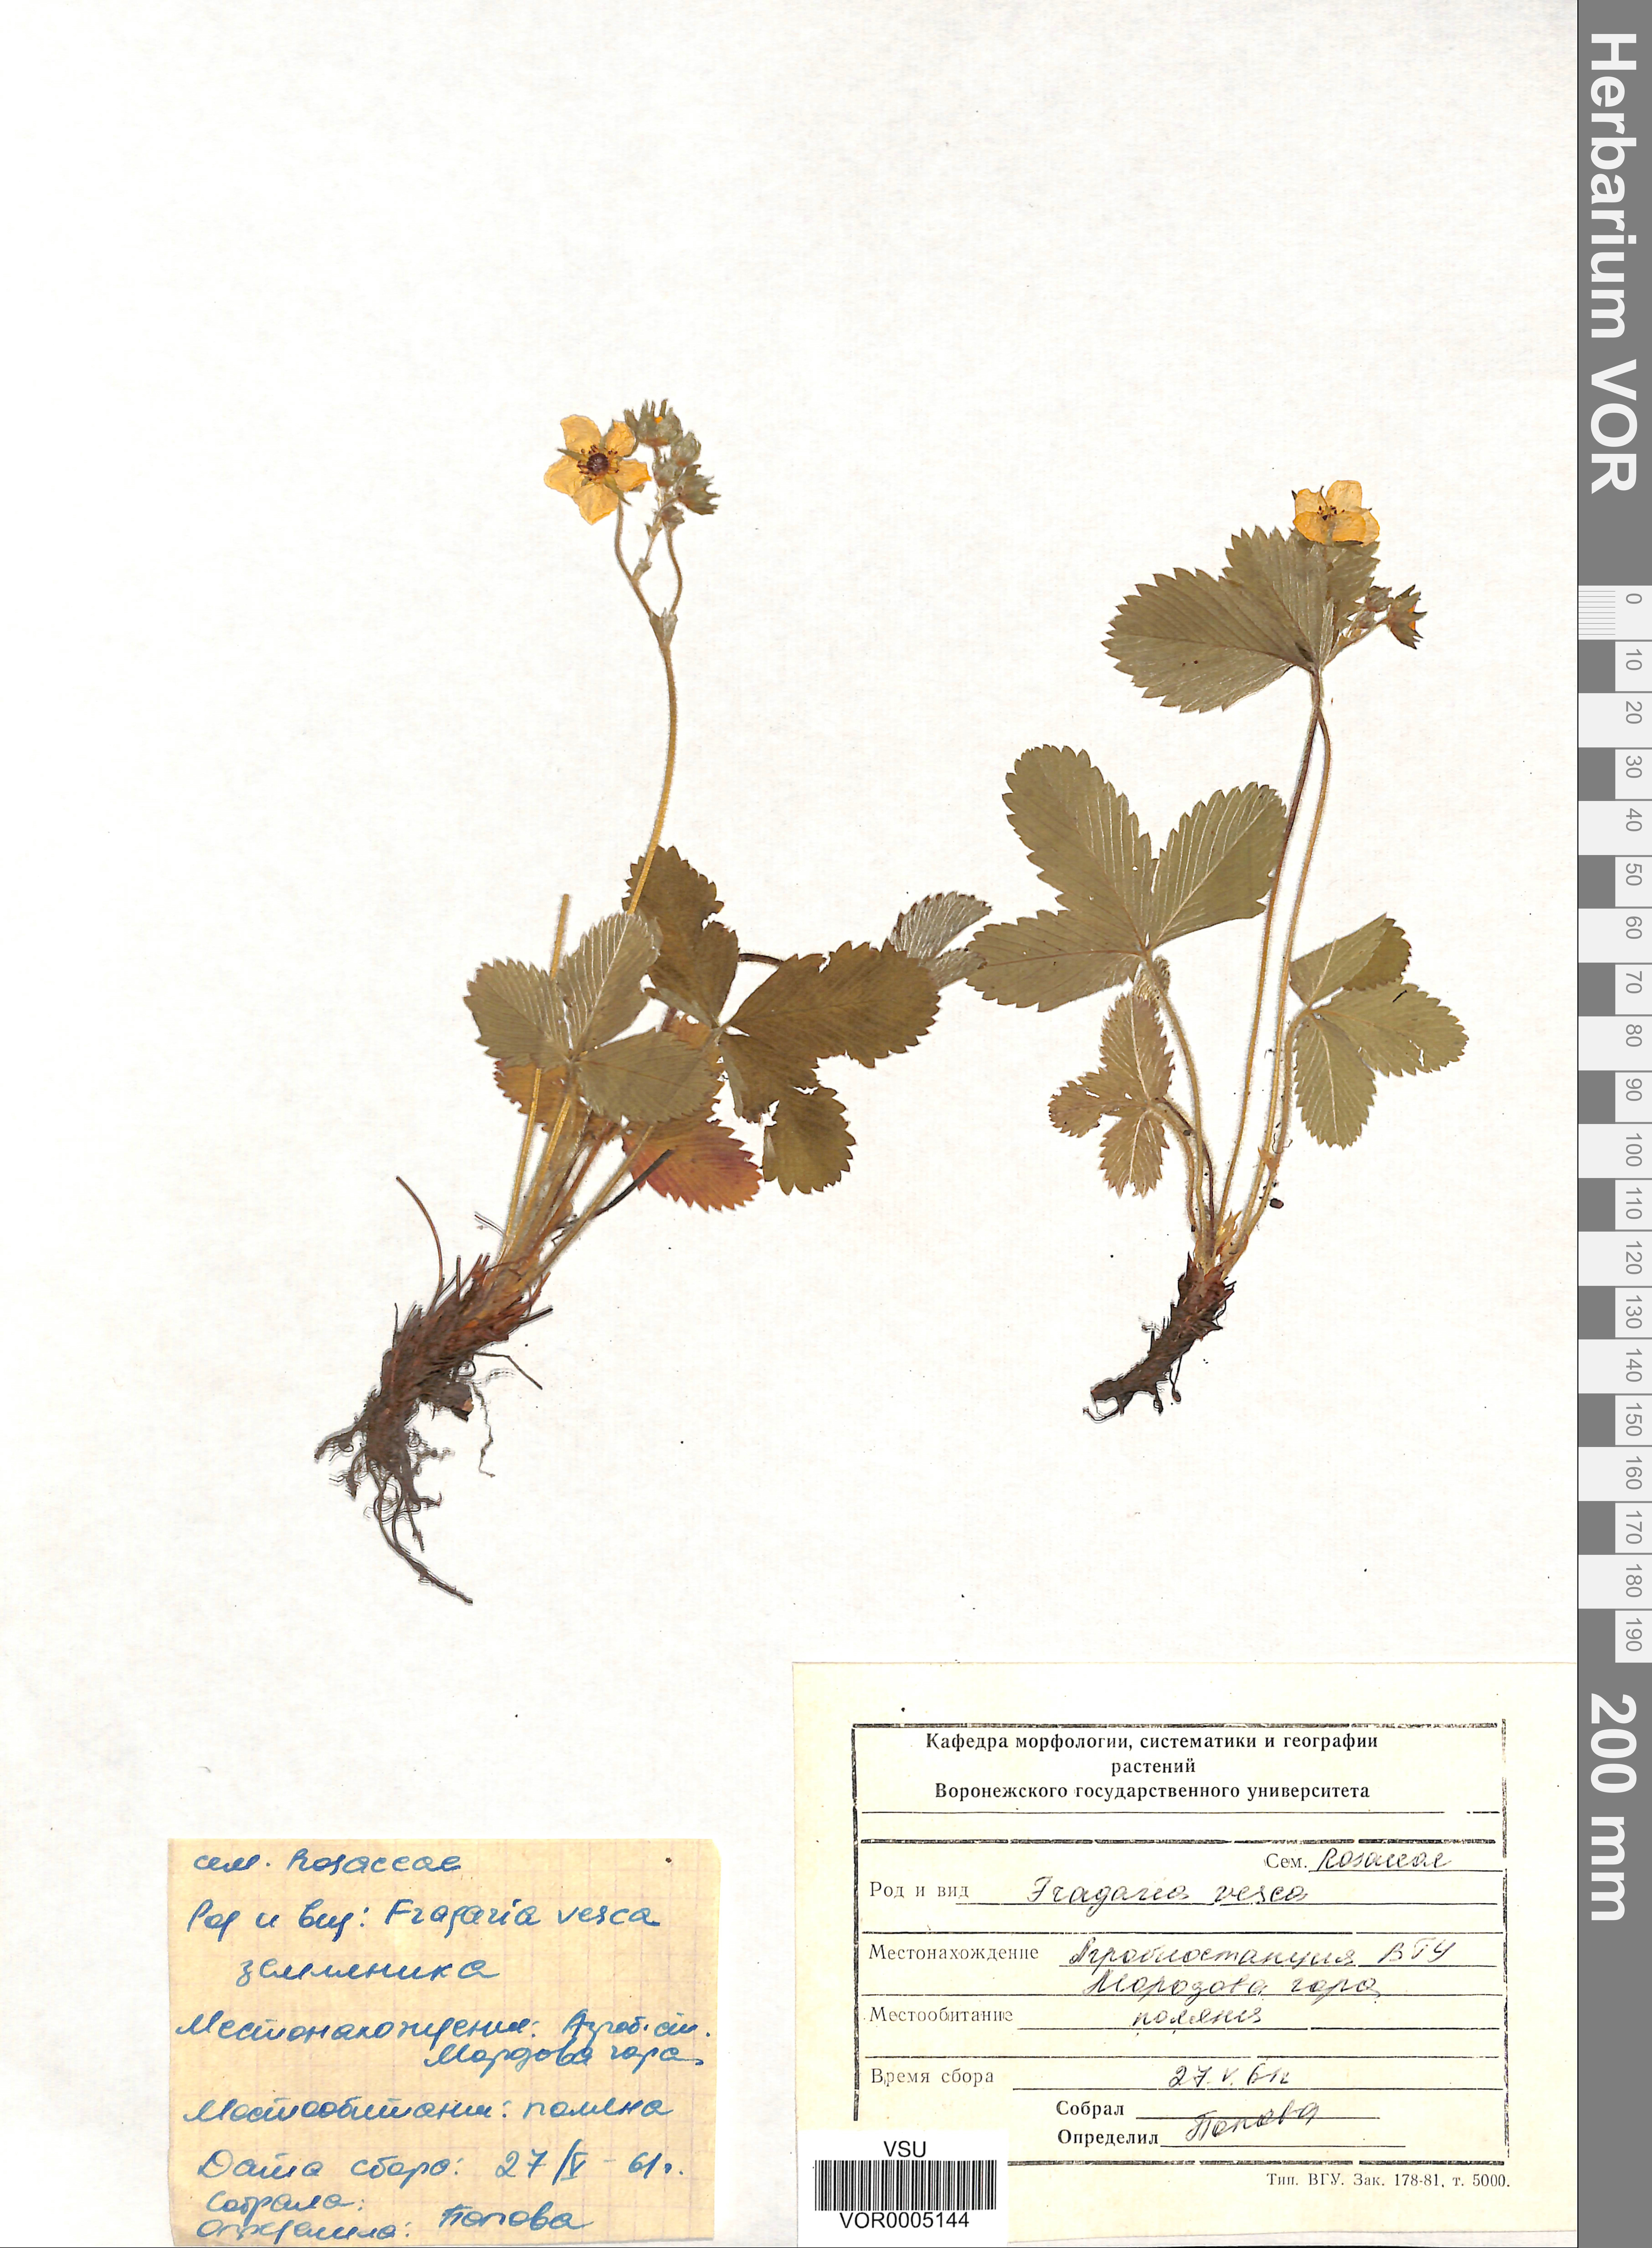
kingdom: Plantae
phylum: Tracheophyta
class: Magnoliopsida
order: Rosales
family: Rosaceae
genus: Fragaria
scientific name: Fragaria vesca
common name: Wild strawberry
